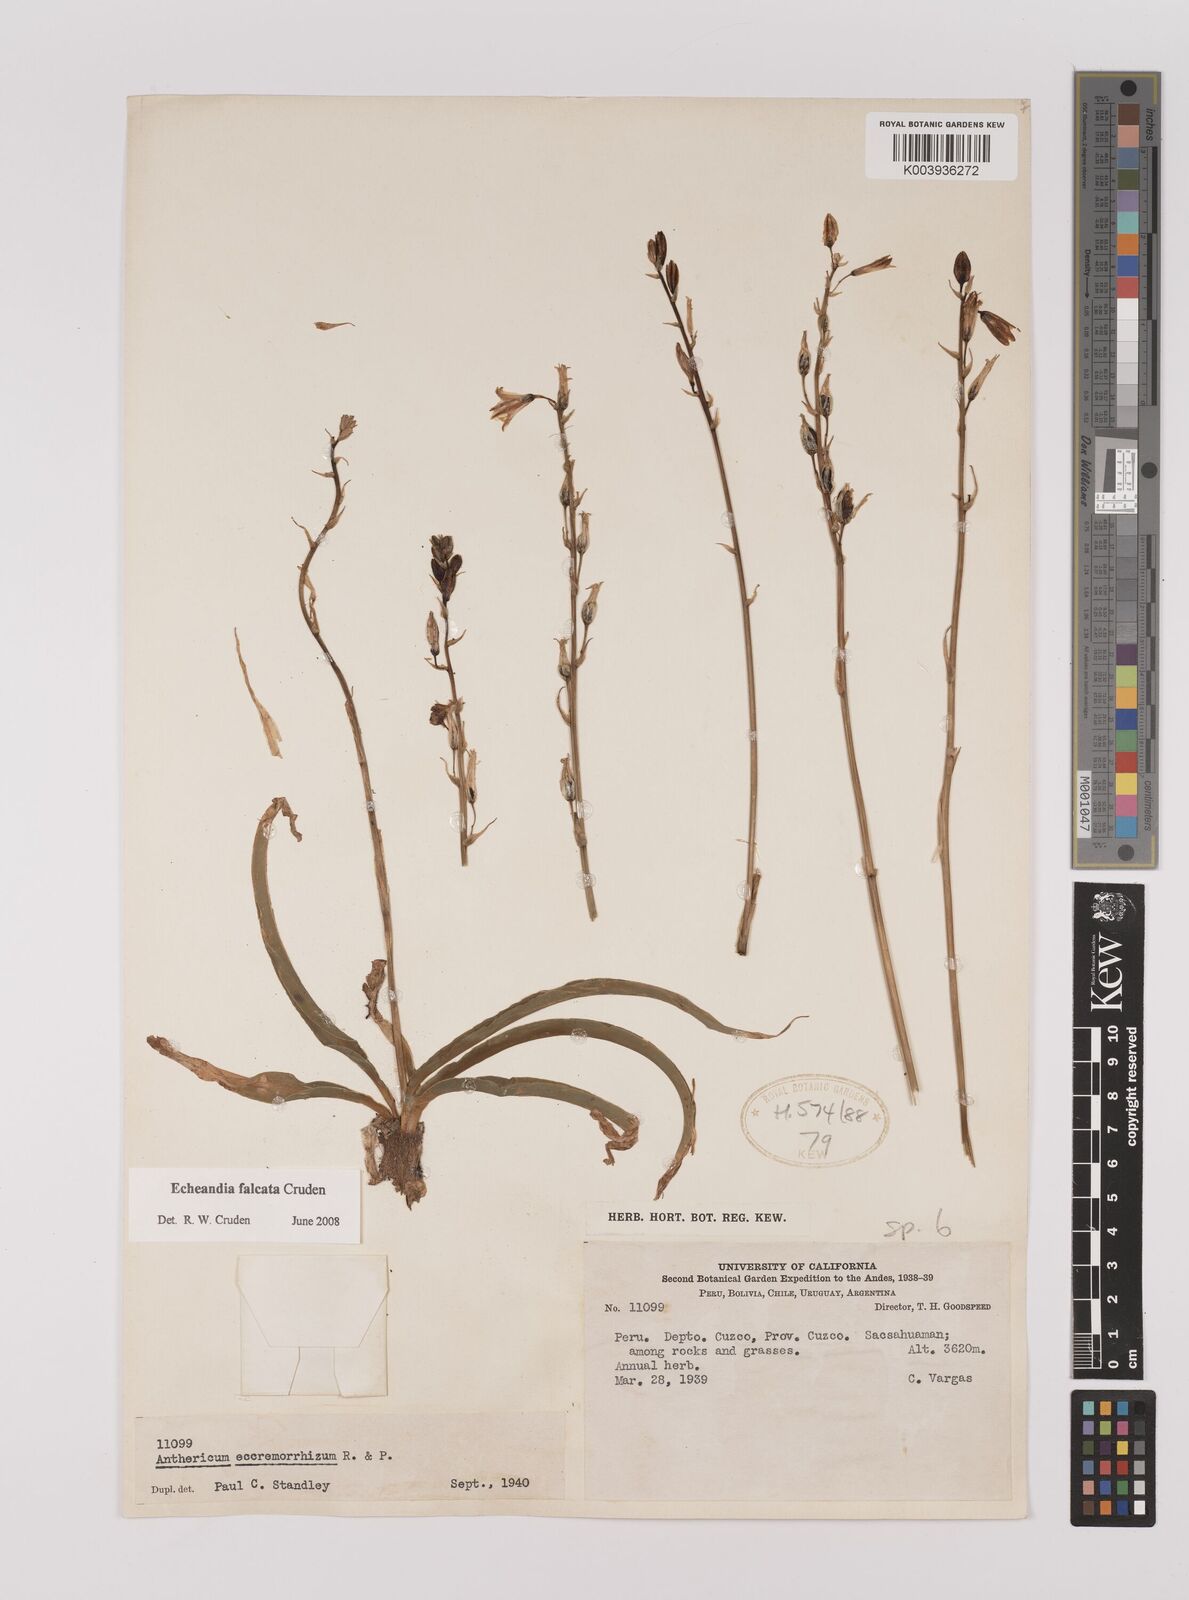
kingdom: Plantae
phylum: Tracheophyta
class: Liliopsida
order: Asparagales
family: Asparagaceae
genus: Echeandia
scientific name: Echeandia falcata
